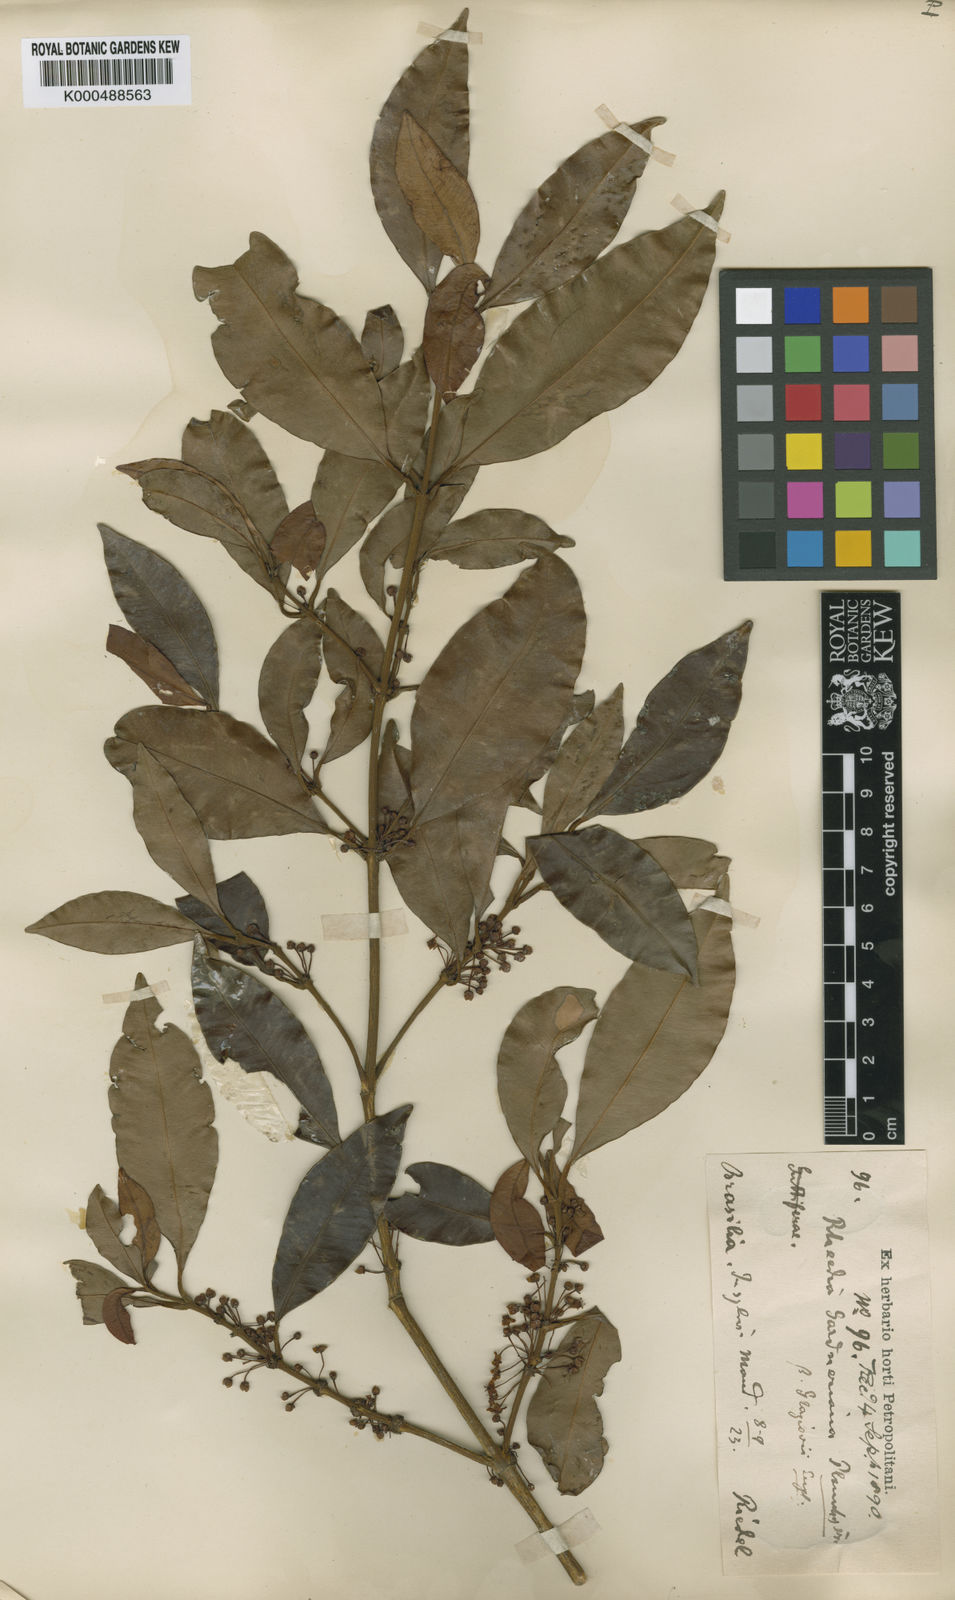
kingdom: Plantae
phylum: Tracheophyta
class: Magnoliopsida
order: Malpighiales
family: Clusiaceae
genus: Garcinia
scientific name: Garcinia gardneriana
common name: Achacha
